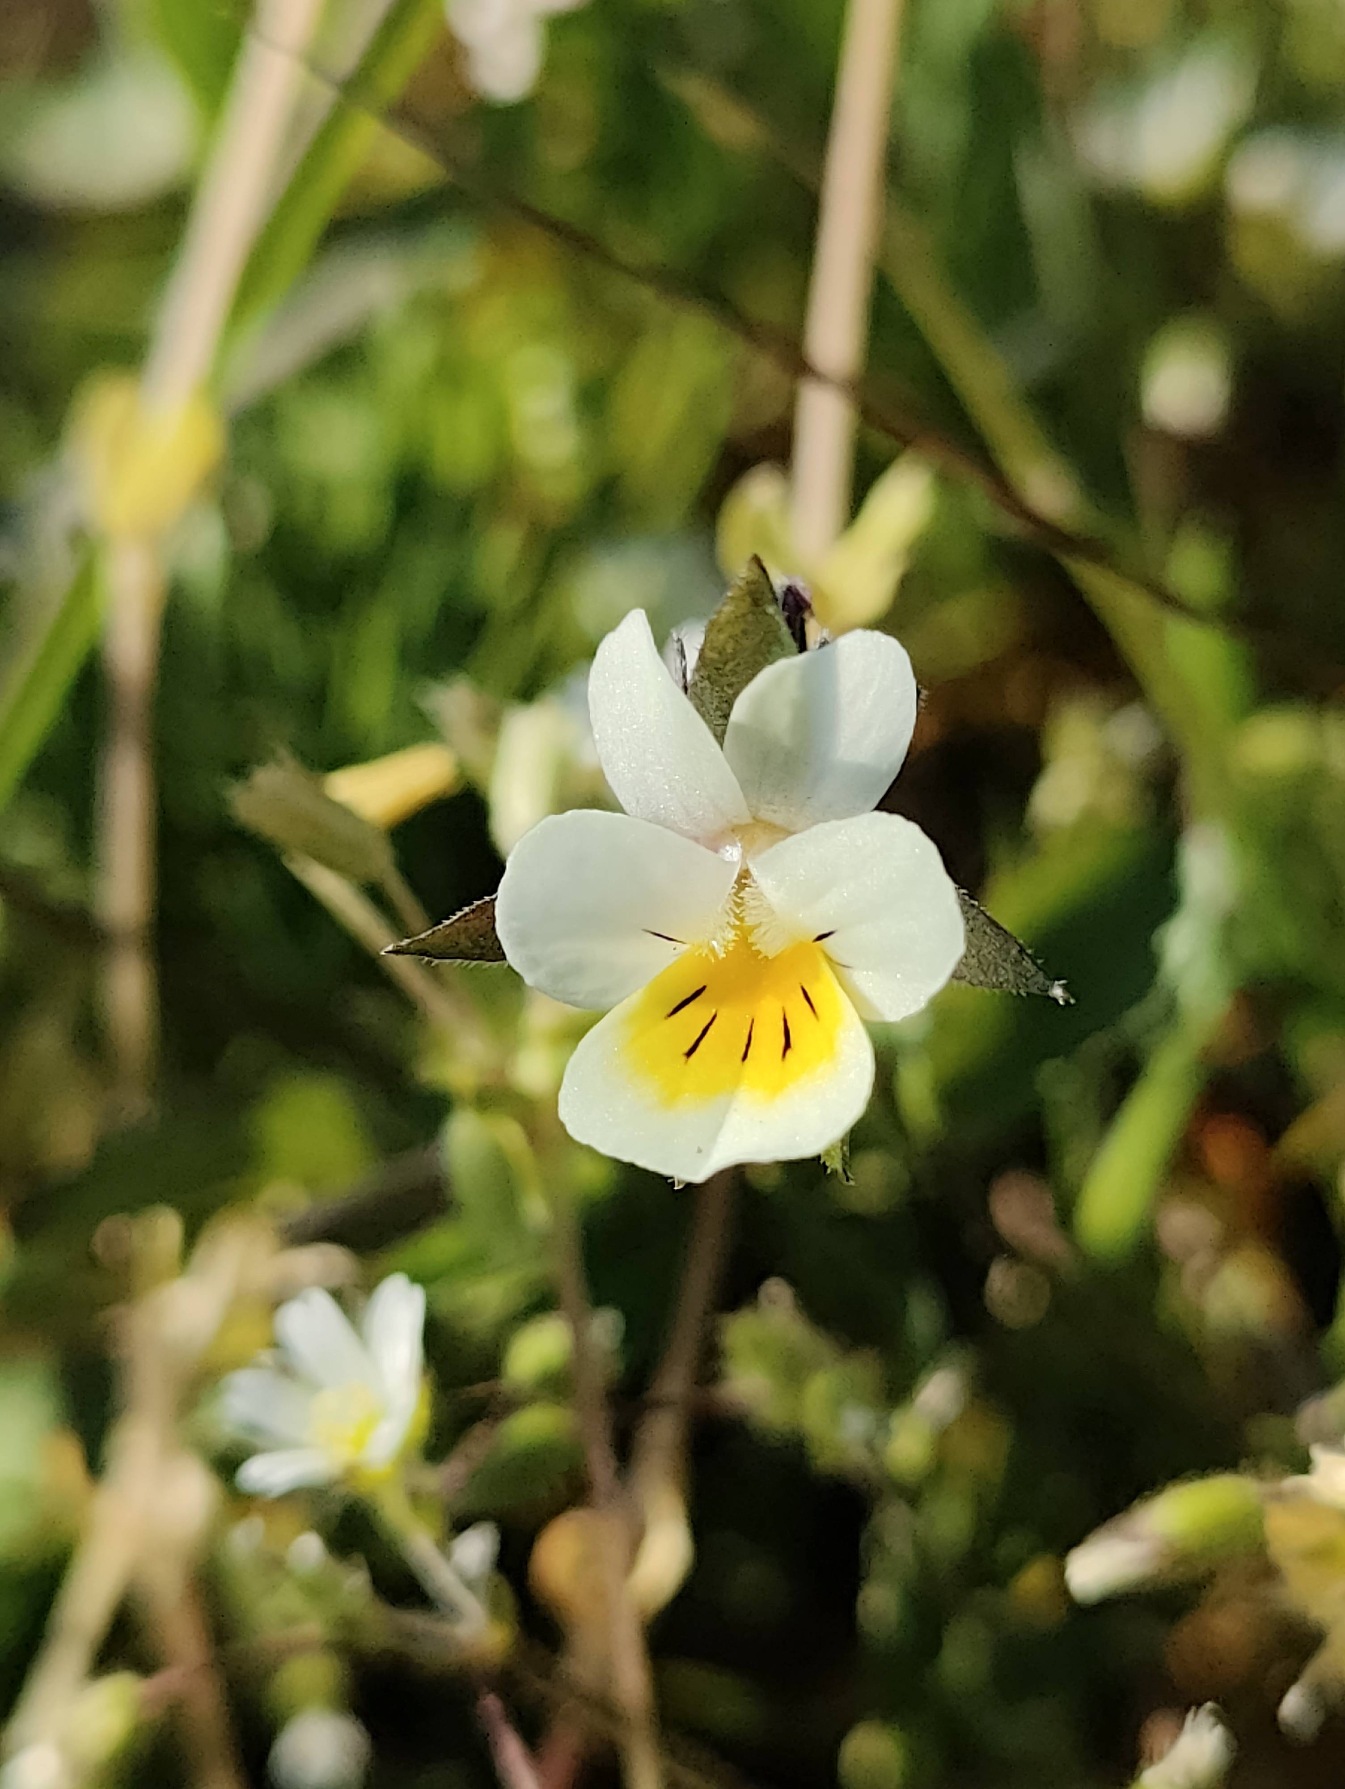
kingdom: Plantae
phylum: Tracheophyta
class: Magnoliopsida
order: Malpighiales
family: Violaceae
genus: Viola
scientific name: Viola tricolor
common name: Stedmoderblomst
